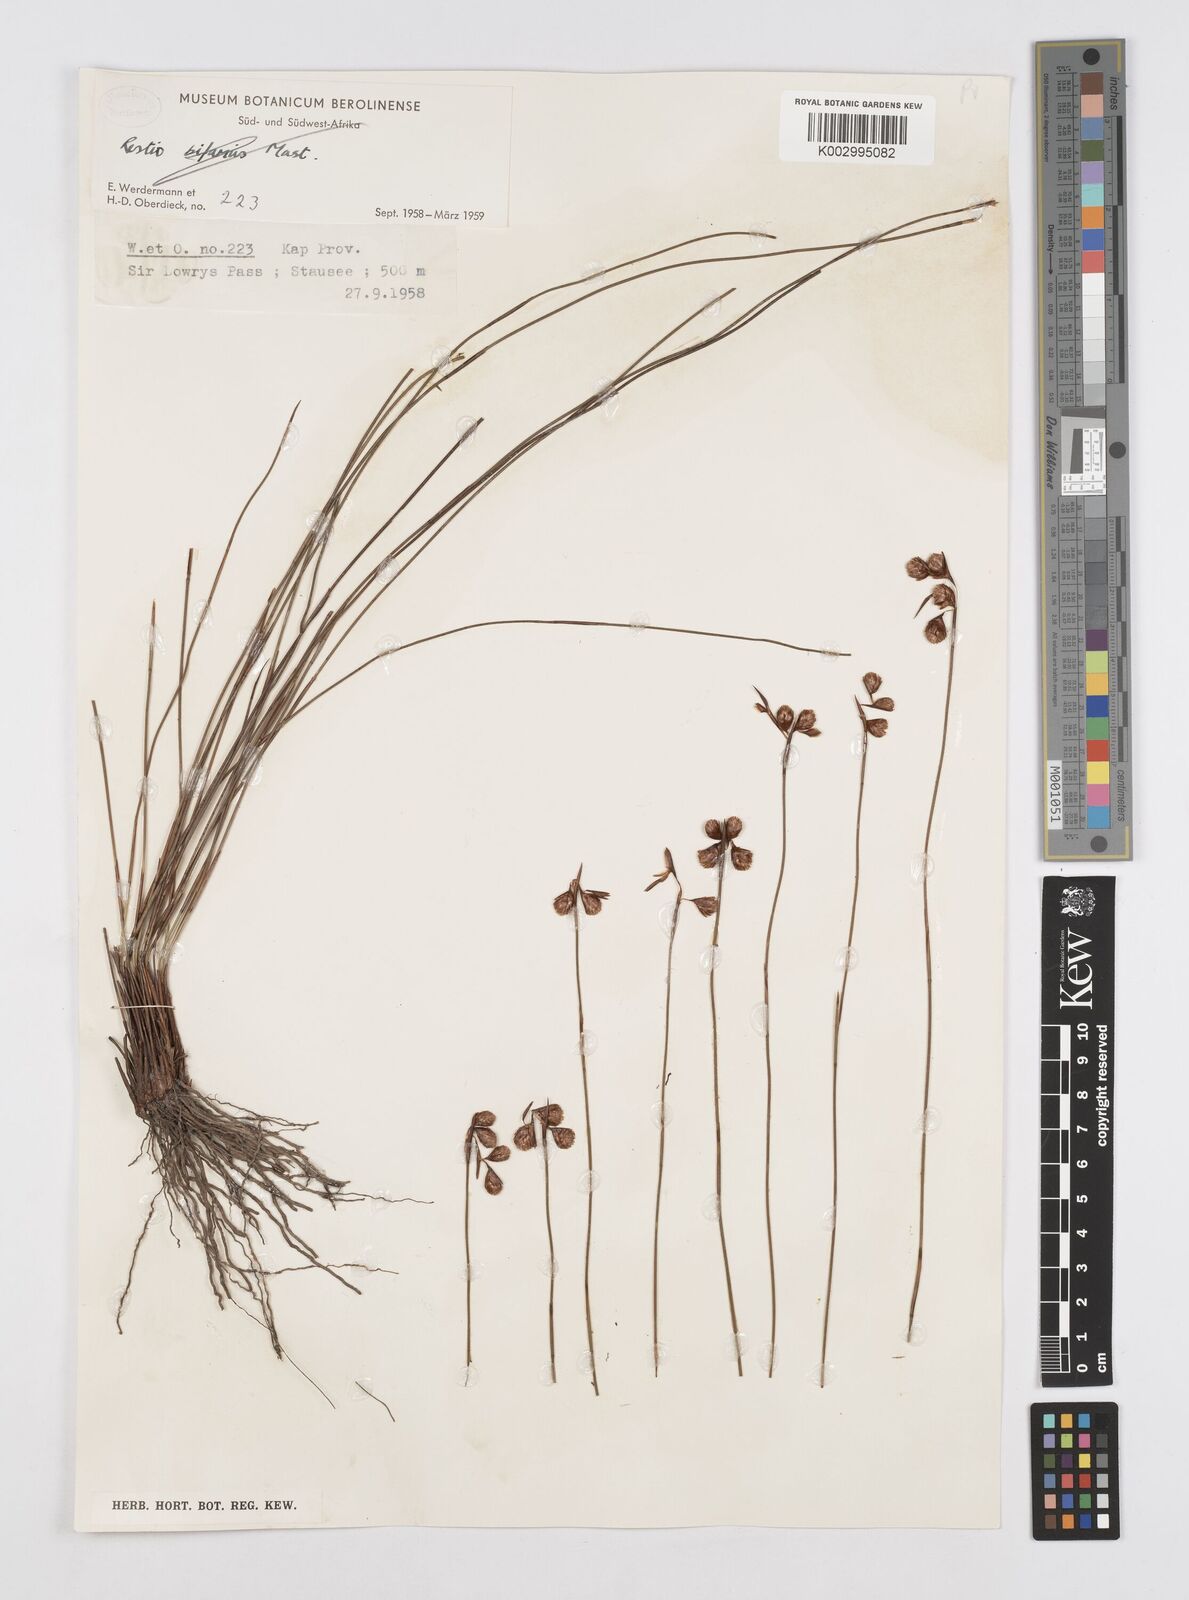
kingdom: Plantae
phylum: Tracheophyta
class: Liliopsida
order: Poales
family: Restionaceae
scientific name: Restionaceae
